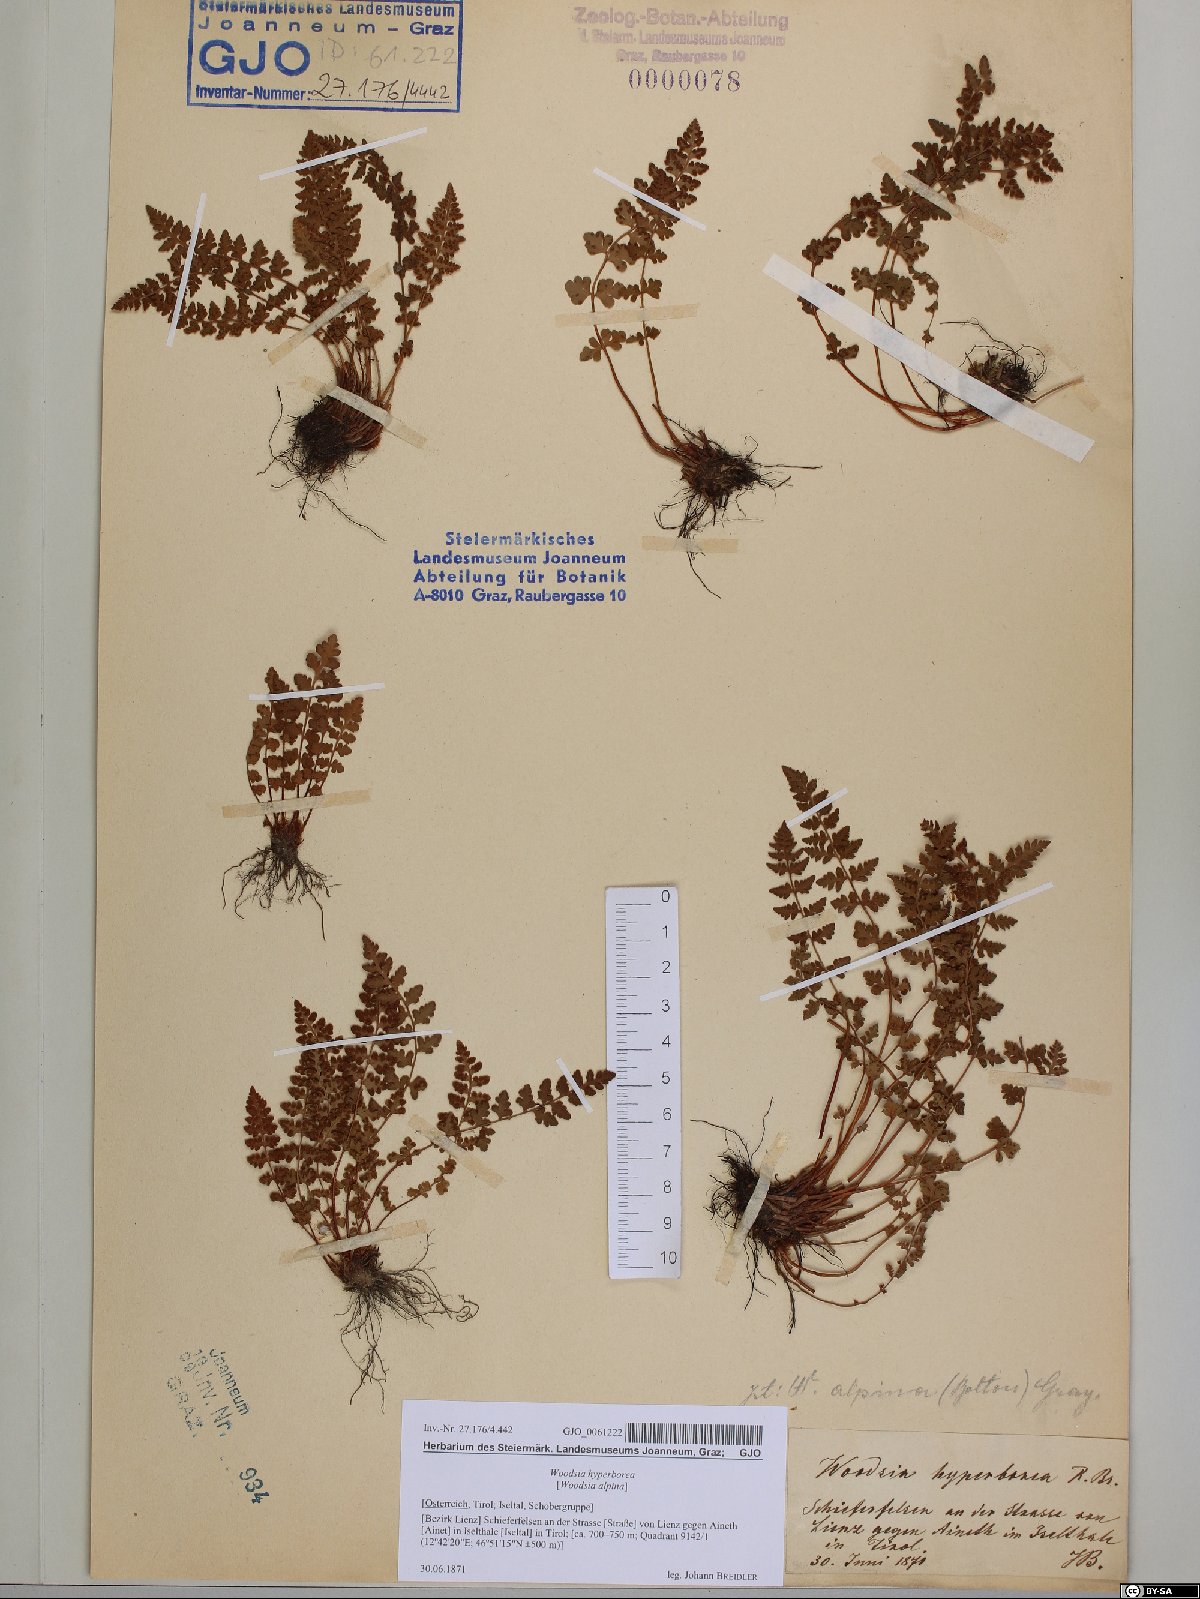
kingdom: Plantae
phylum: Tracheophyta
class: Polypodiopsida
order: Polypodiales
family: Woodsiaceae
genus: Woodsia
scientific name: Woodsia alpina
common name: Alpine woodsia
